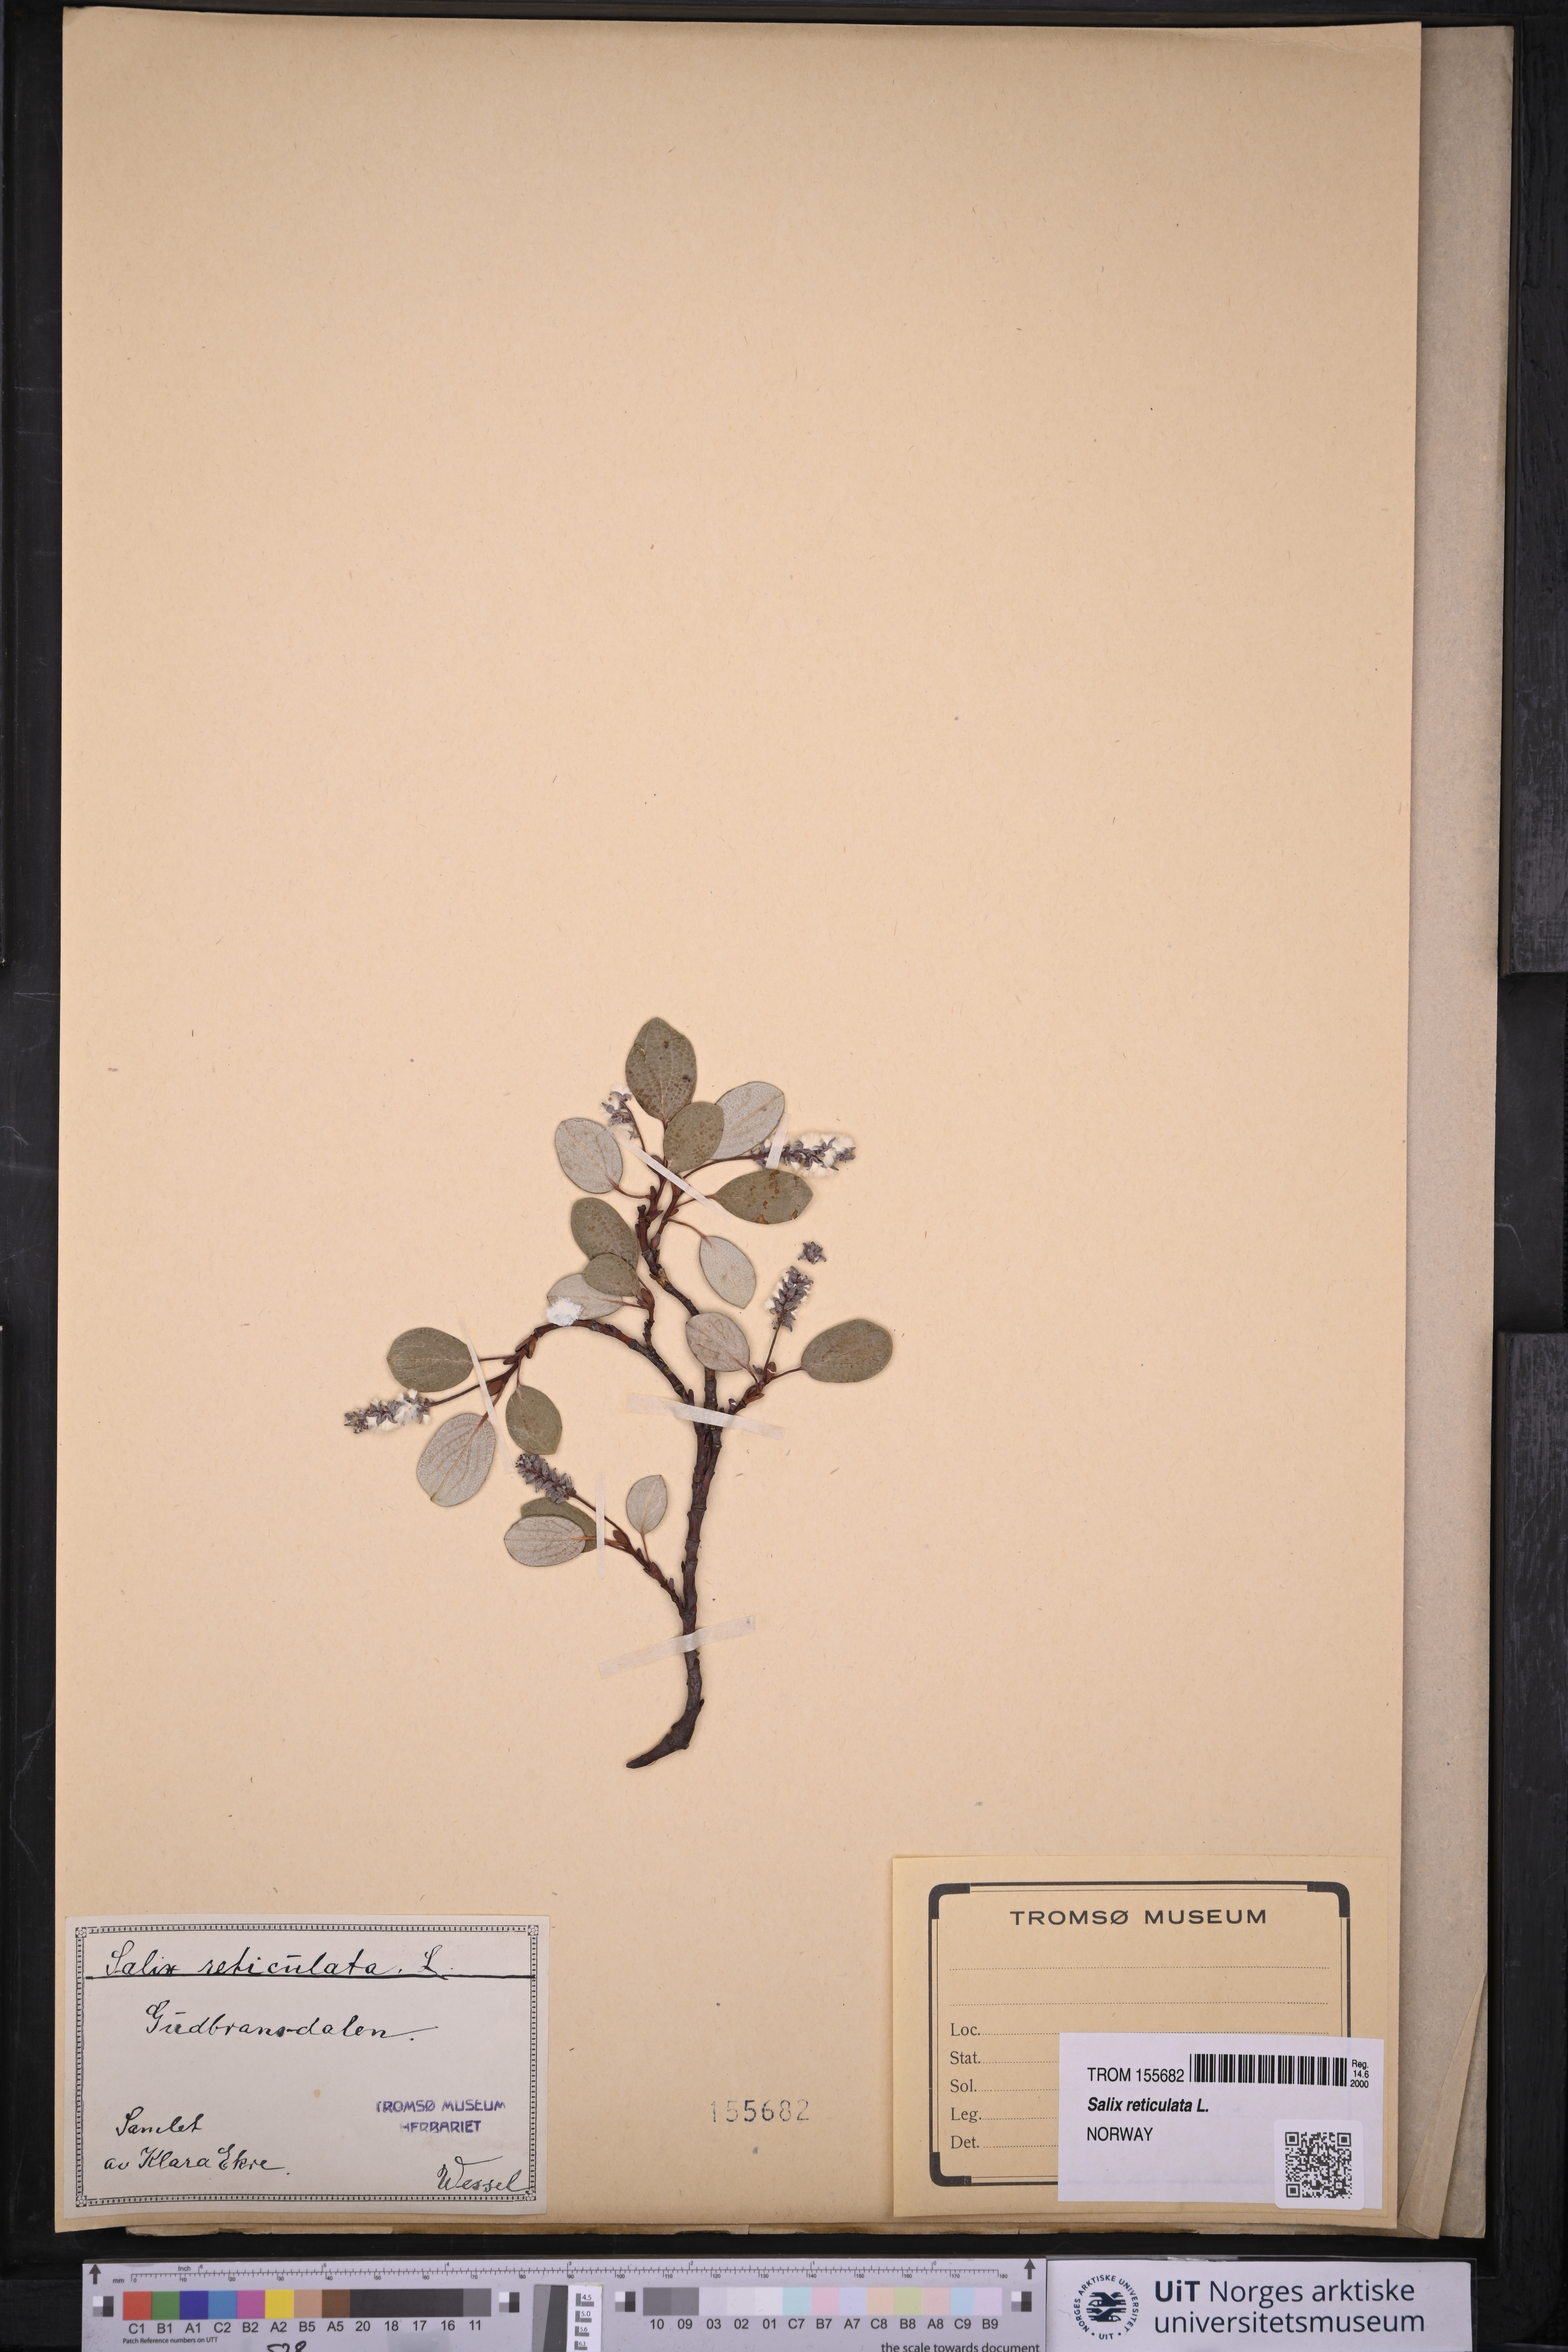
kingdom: Plantae
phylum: Tracheophyta
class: Magnoliopsida
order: Malpighiales
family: Salicaceae
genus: Salix
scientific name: Salix reticulata
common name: Net-leaved willow
